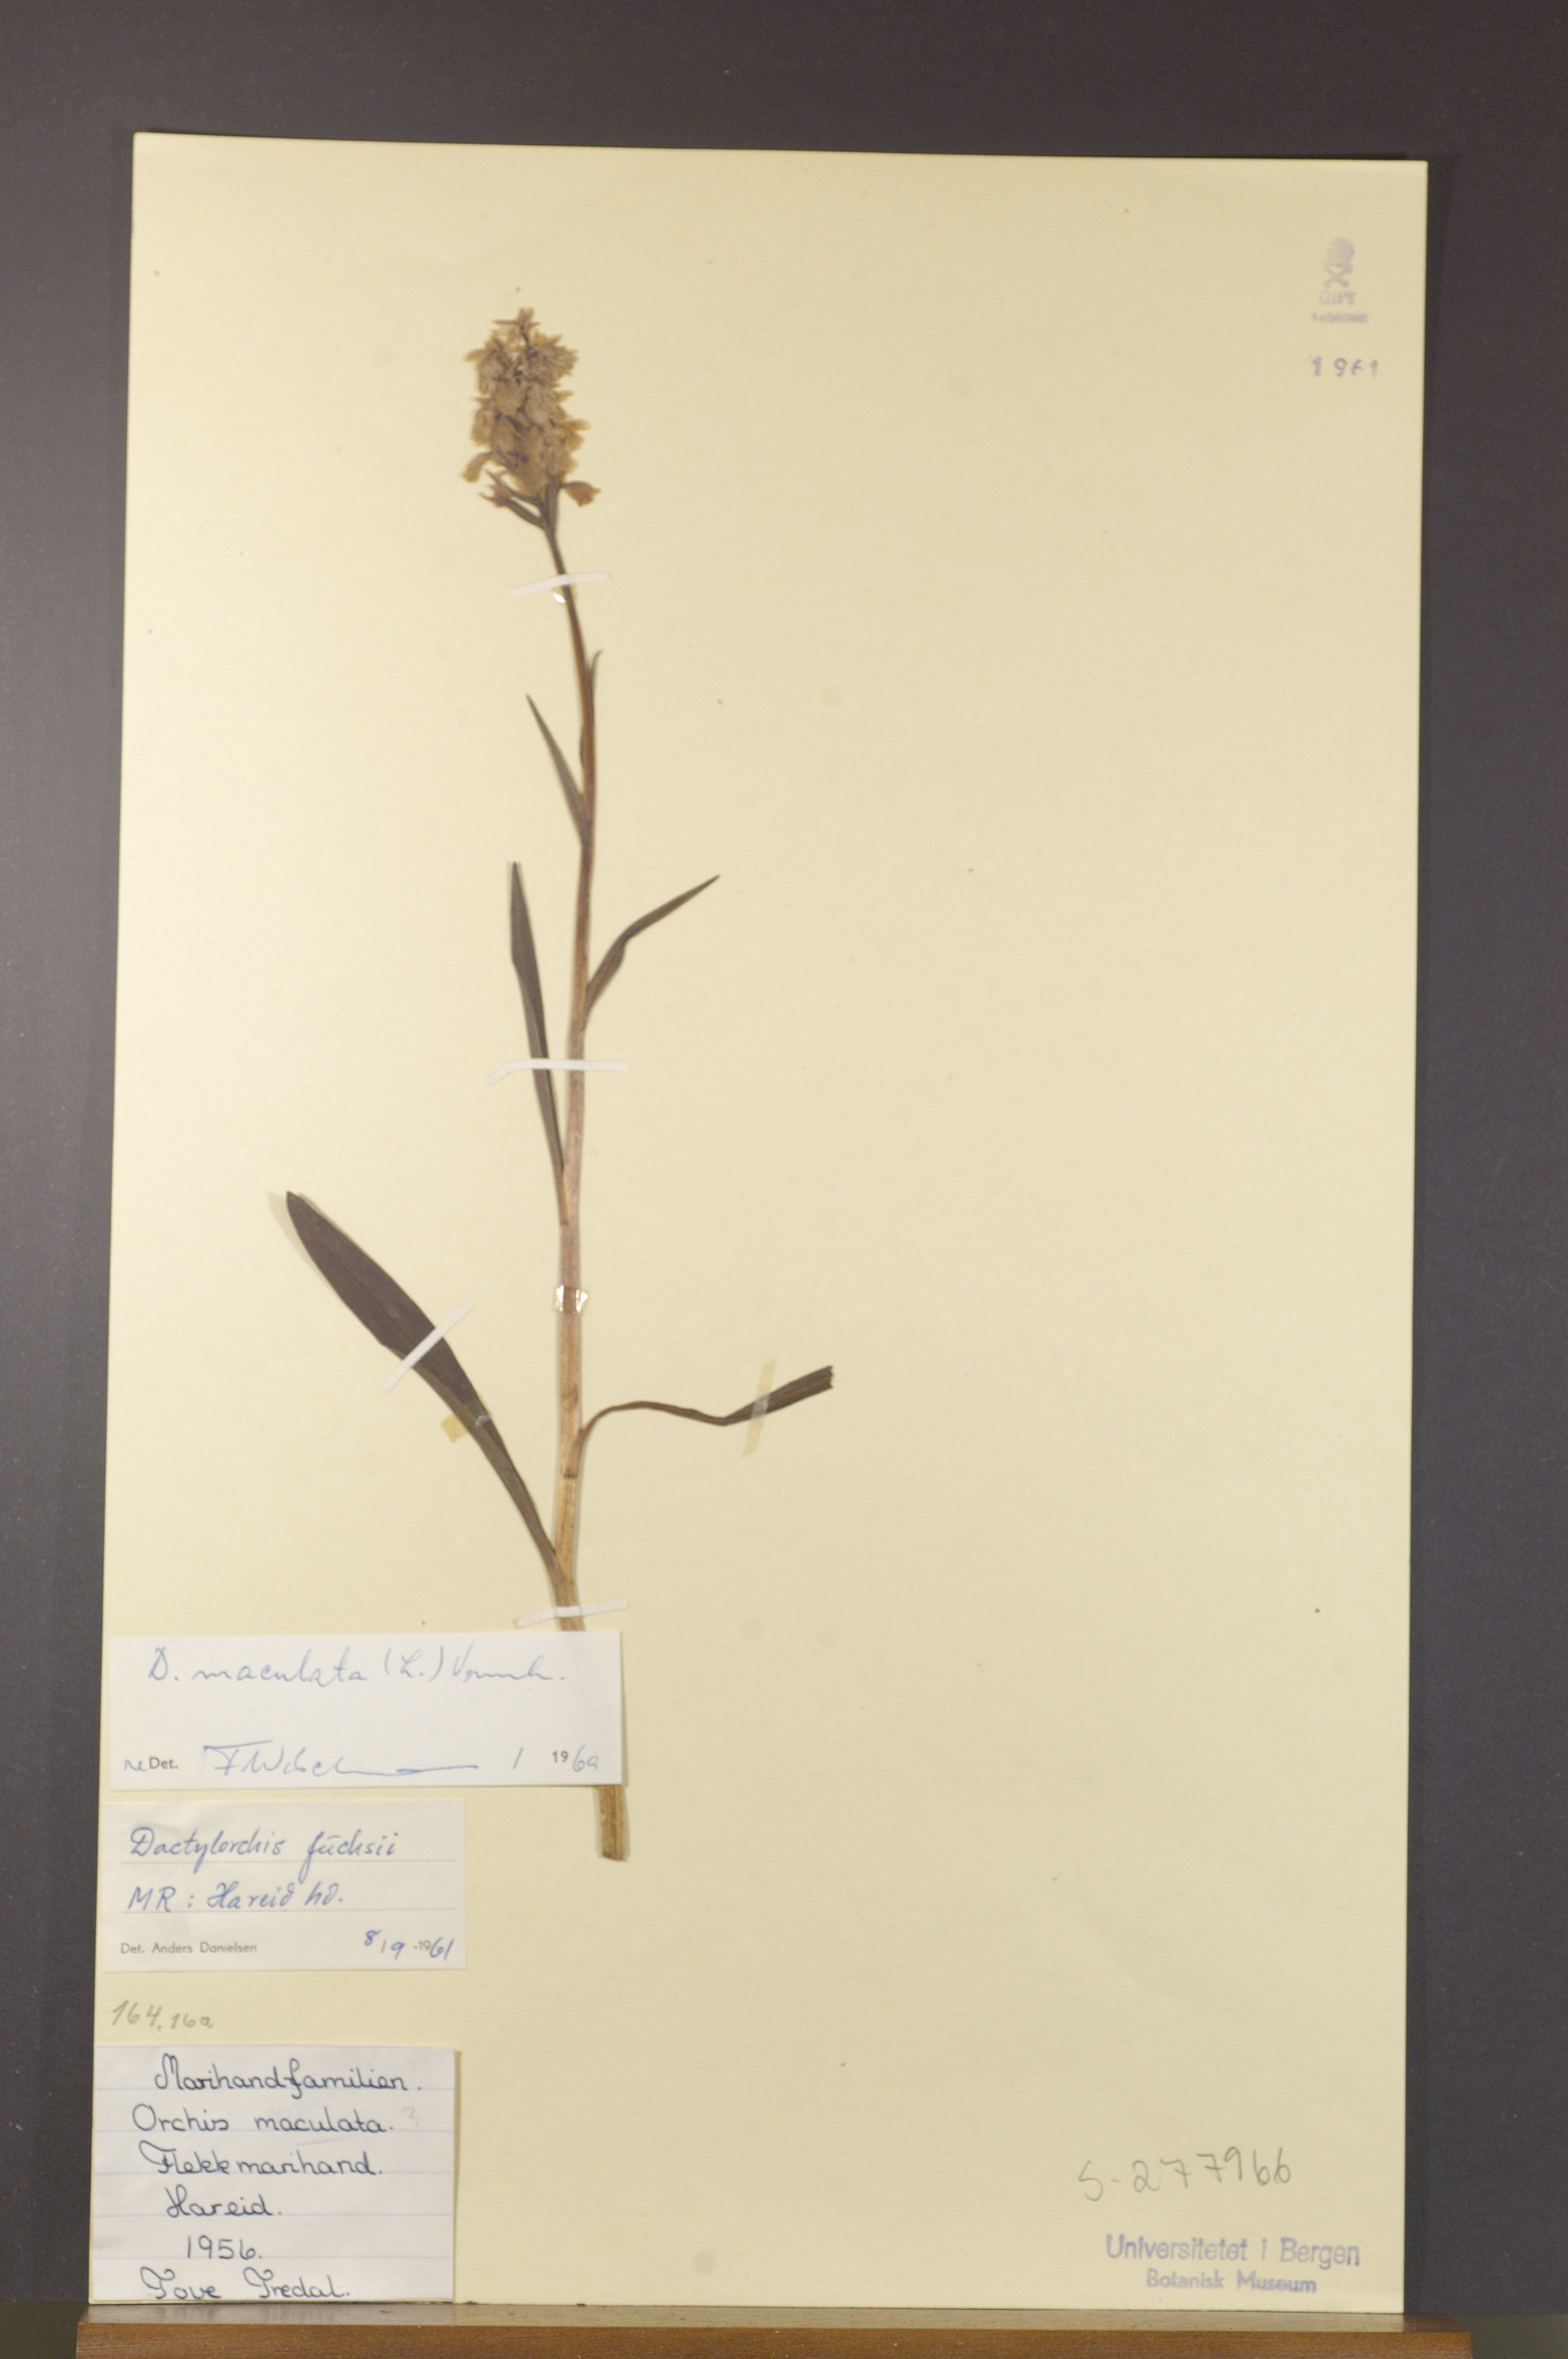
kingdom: Plantae
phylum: Tracheophyta
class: Liliopsida
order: Asparagales
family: Orchidaceae
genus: Dactylorhiza
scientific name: Dactylorhiza maculata
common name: Heath spotted-orchid
